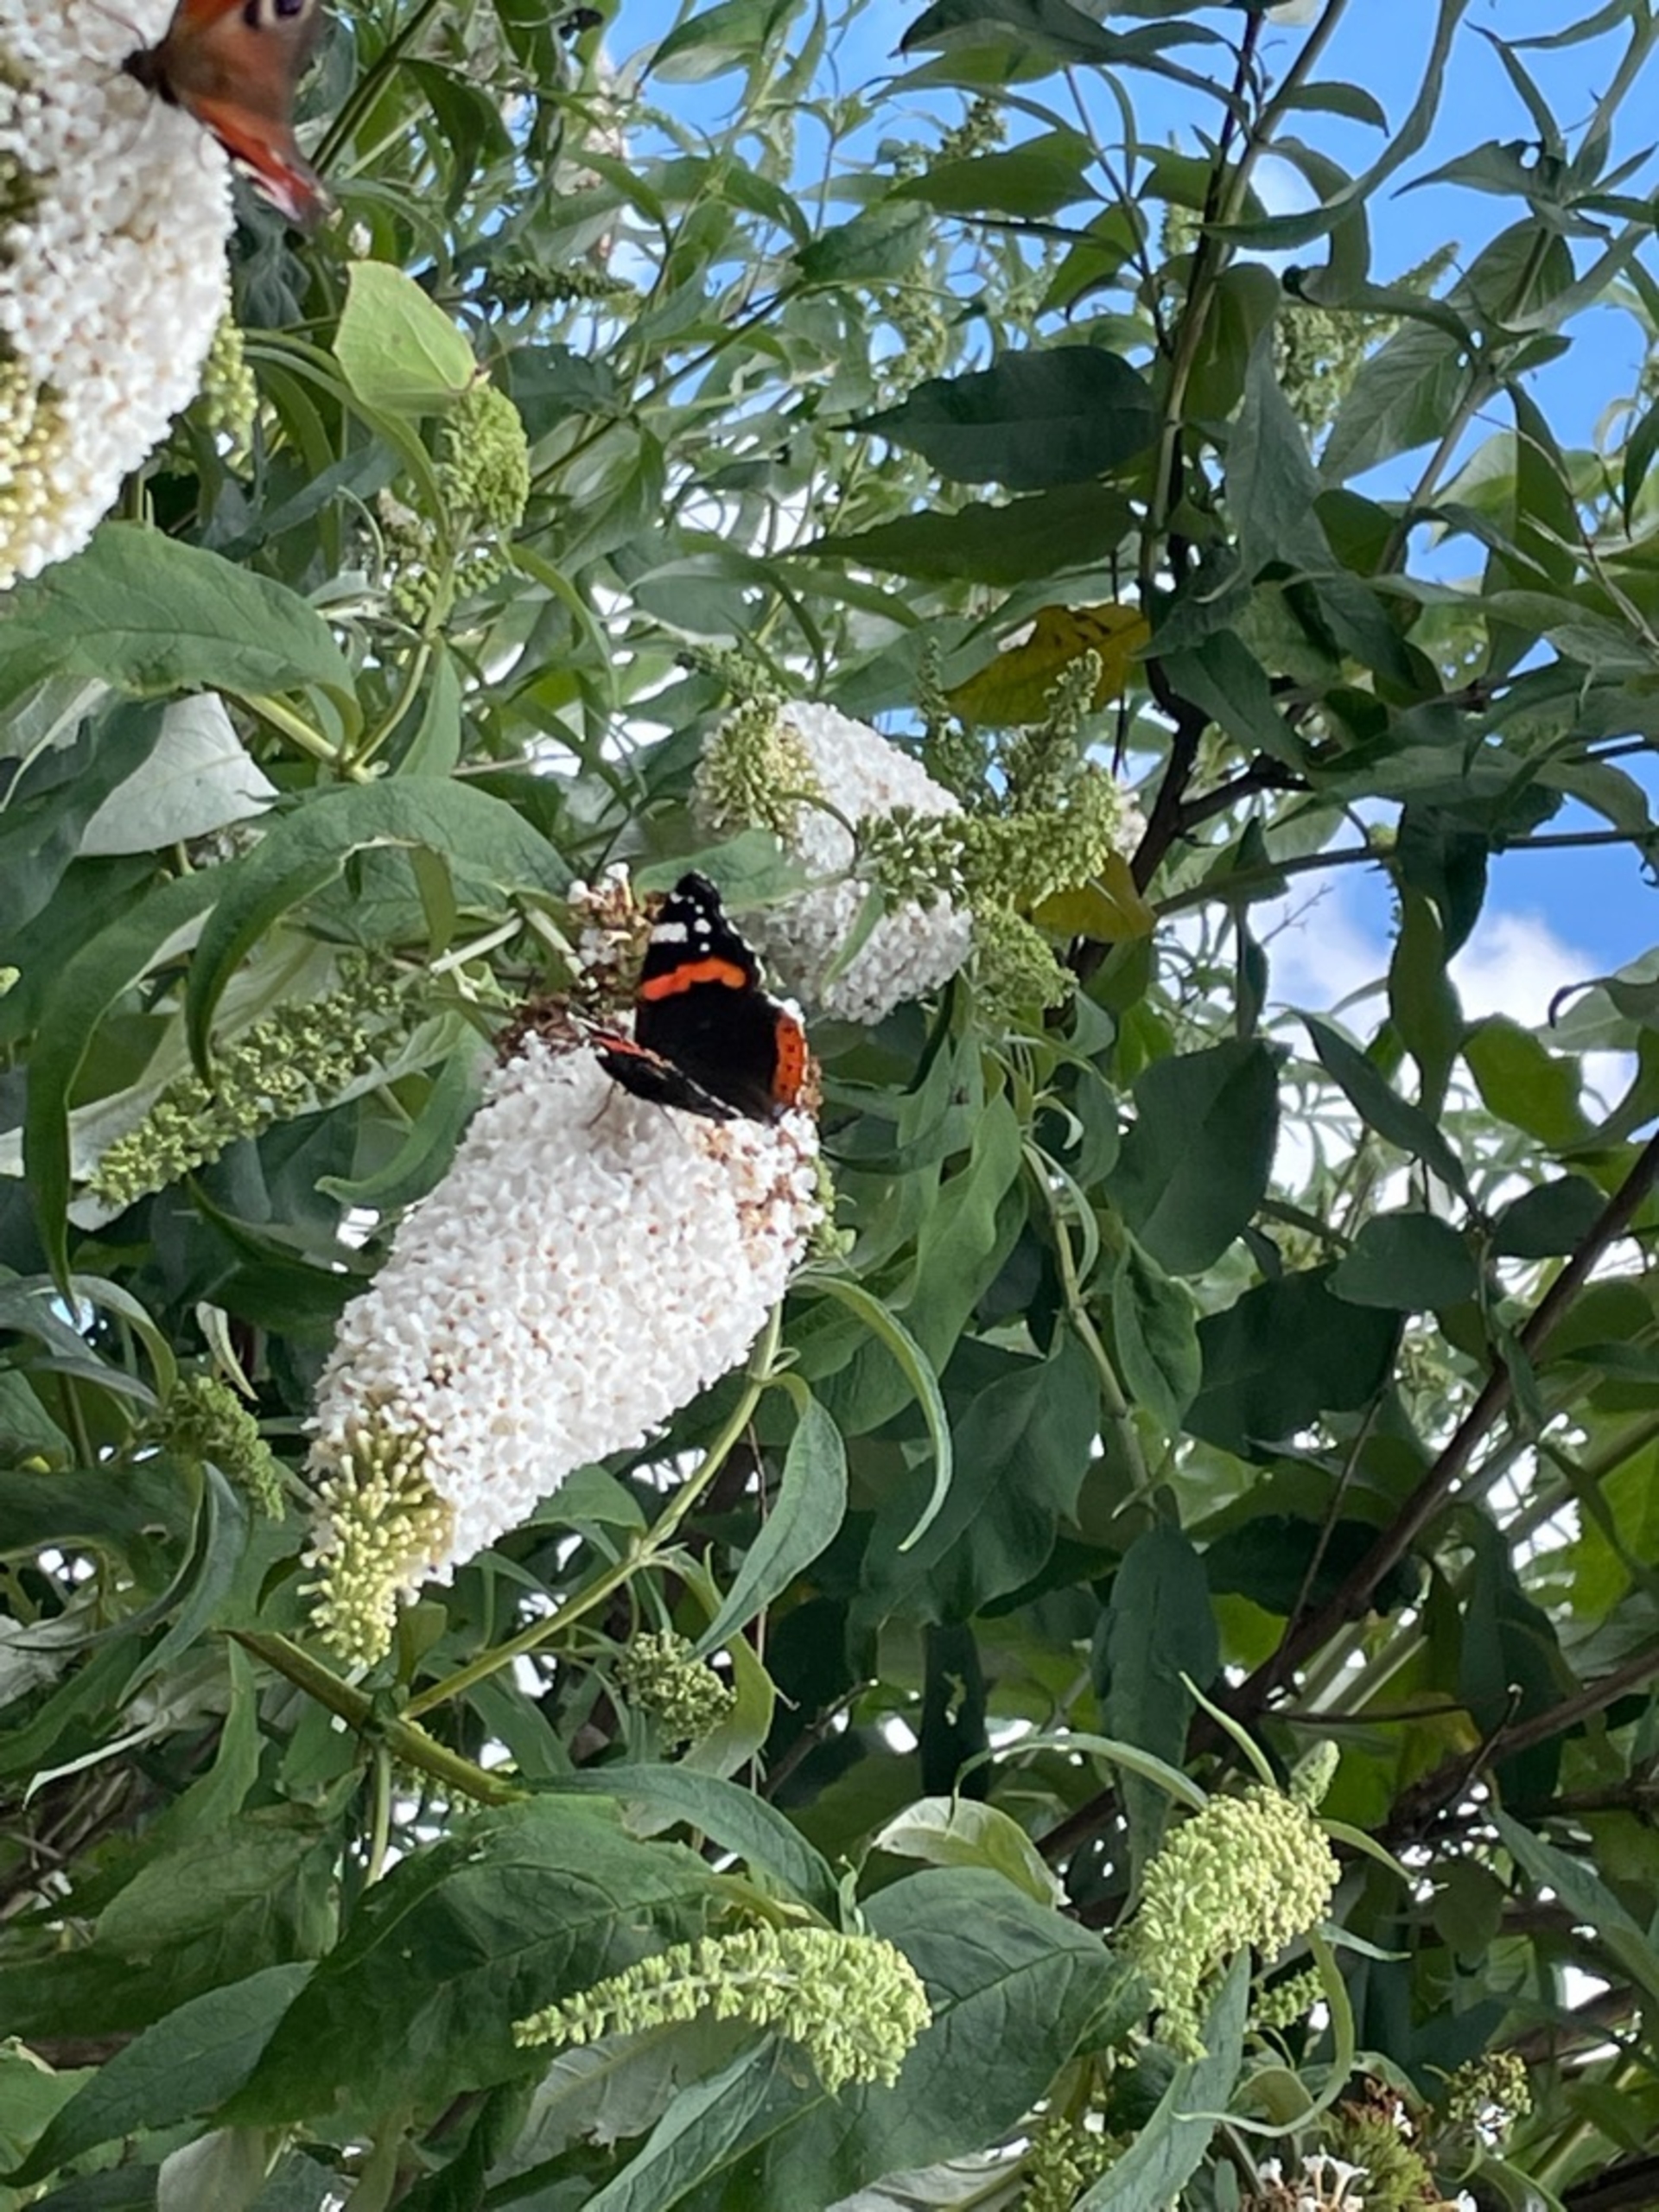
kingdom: Animalia
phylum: Arthropoda
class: Insecta
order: Lepidoptera
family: Nymphalidae
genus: Vanessa
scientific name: Vanessa atalanta
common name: Admiral
